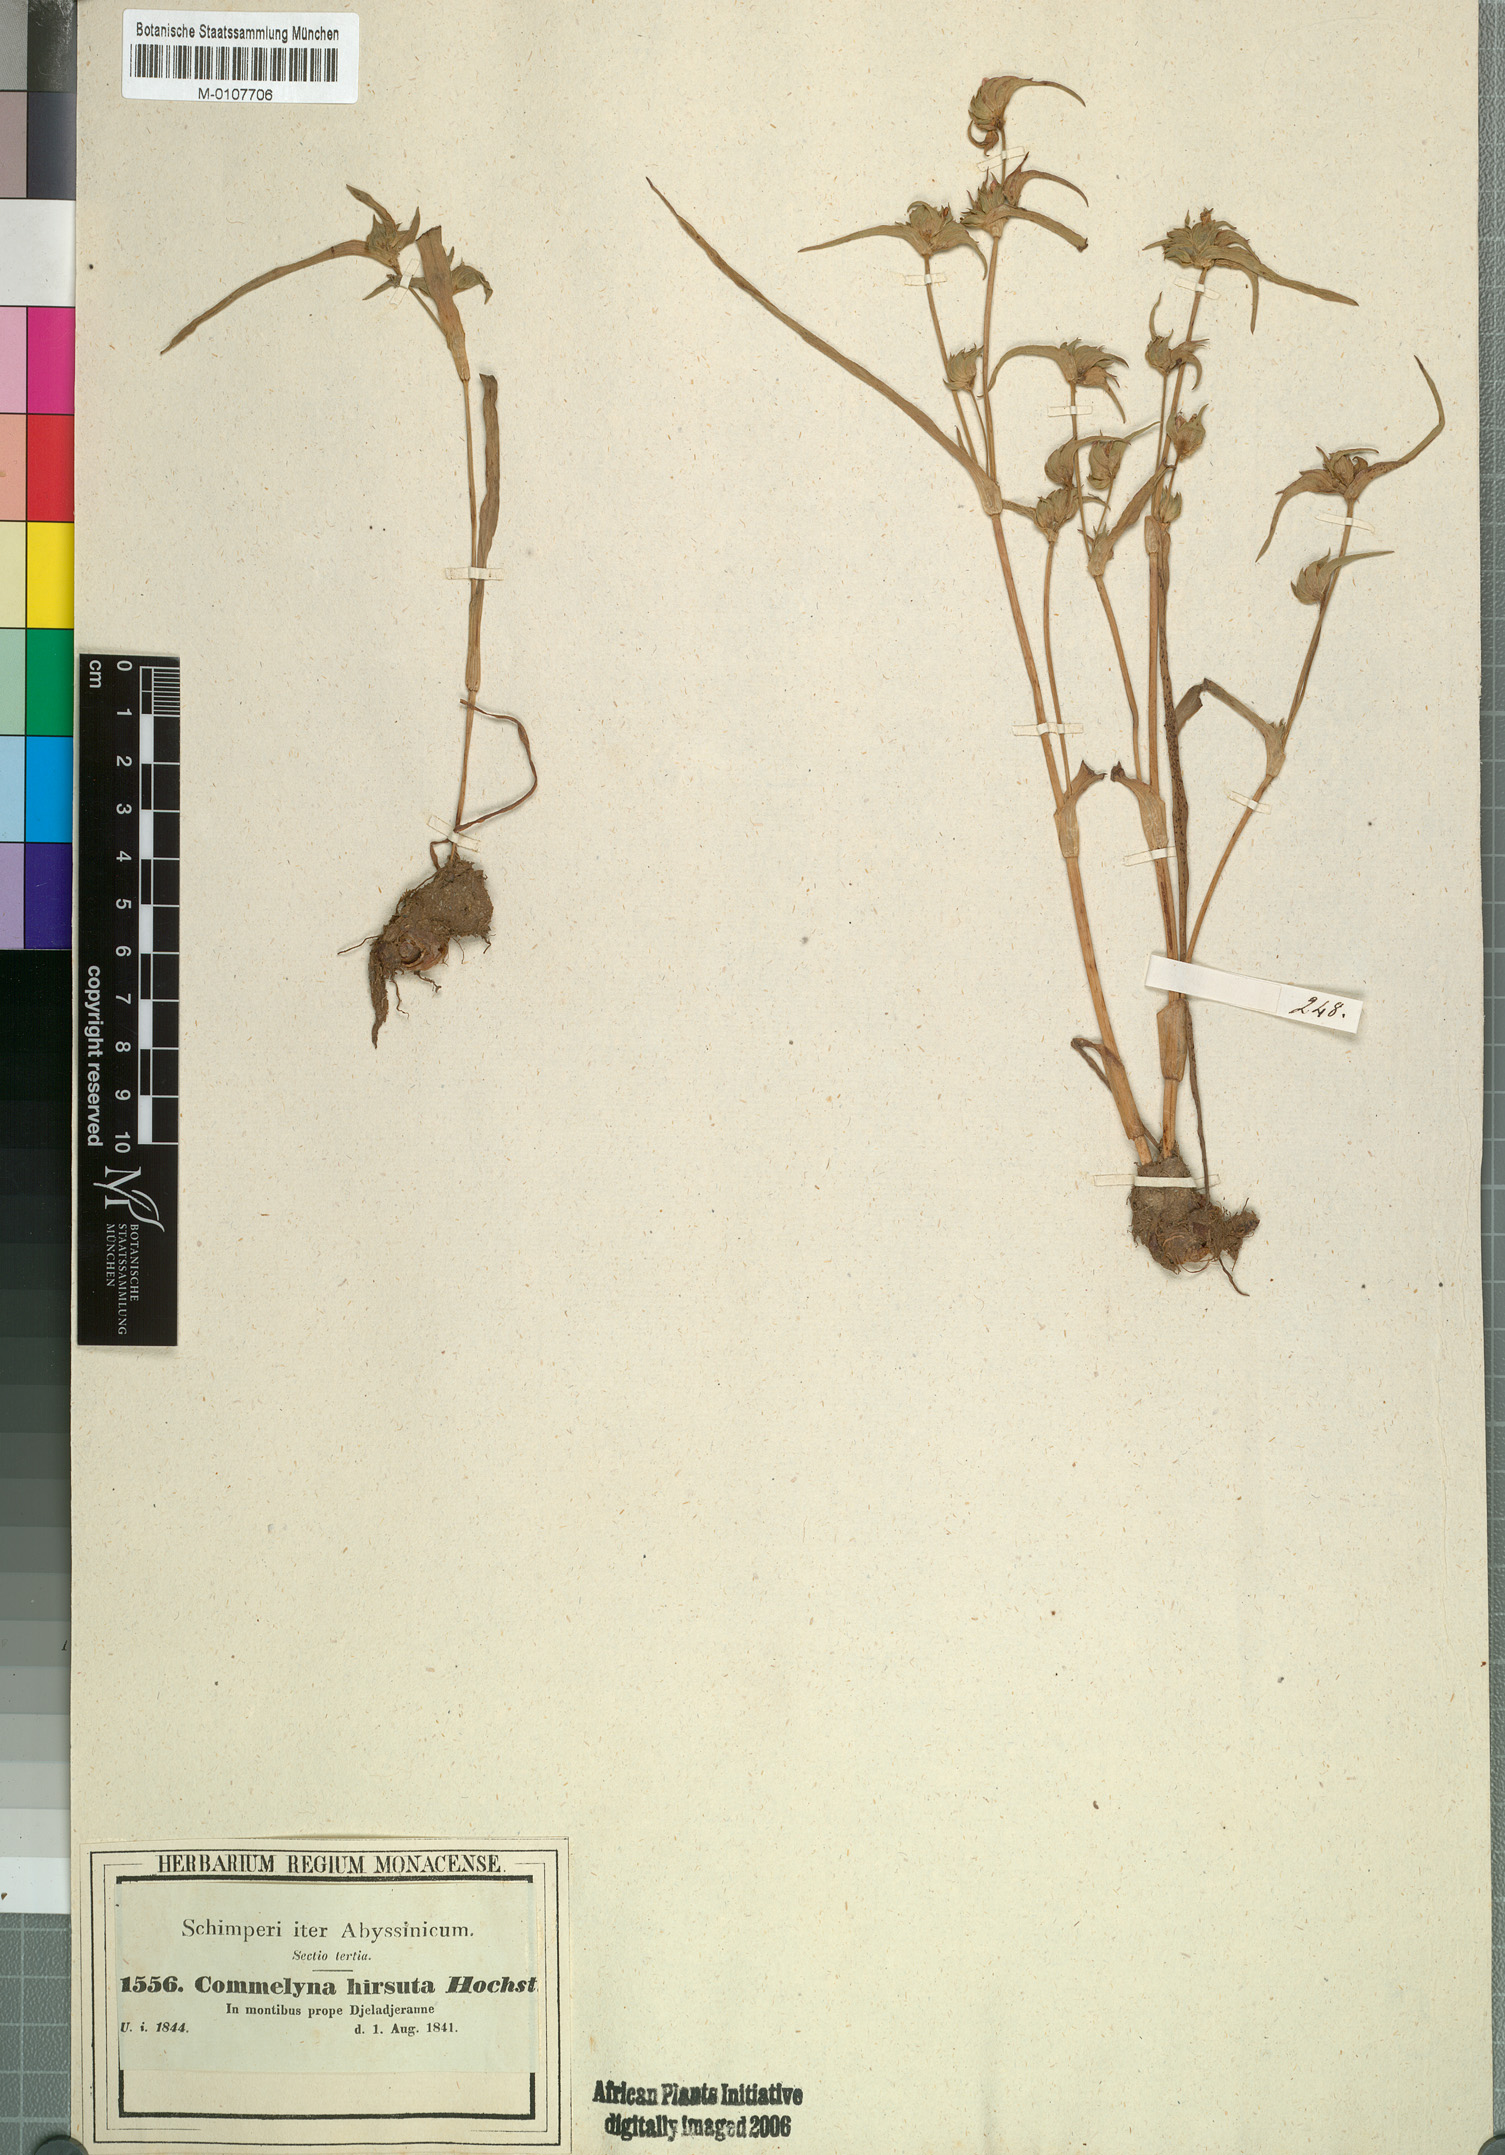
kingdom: Plantae
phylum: Tracheophyta
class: Liliopsida
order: Commelinales
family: Commelinaceae
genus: Cyanotis
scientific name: Cyanotis vaga
